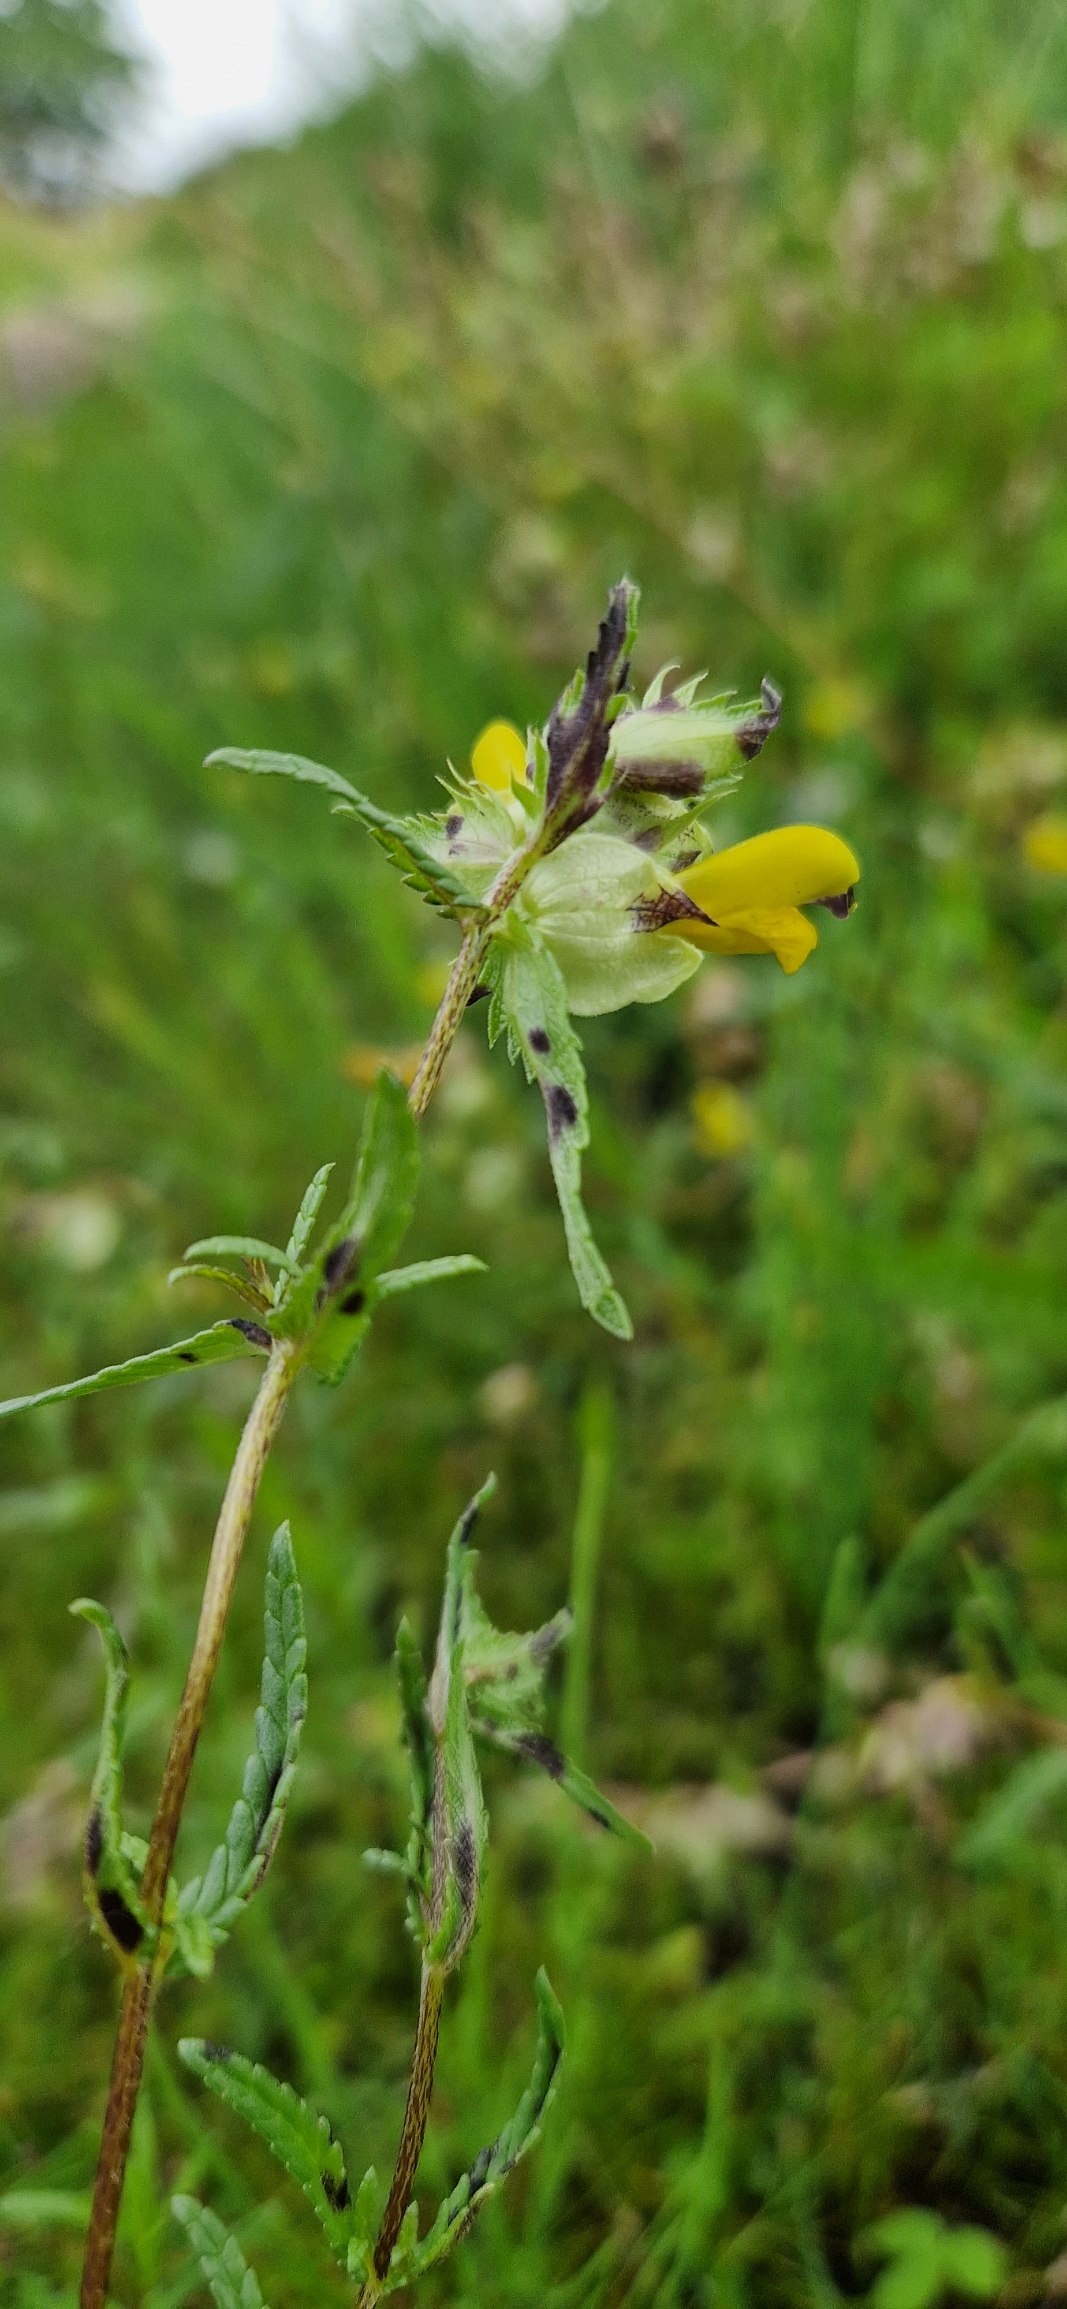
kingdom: Plantae
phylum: Tracheophyta
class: Magnoliopsida
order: Lamiales
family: Orobanchaceae
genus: Rhinanthus
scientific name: Rhinanthus
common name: Stor skjaller
